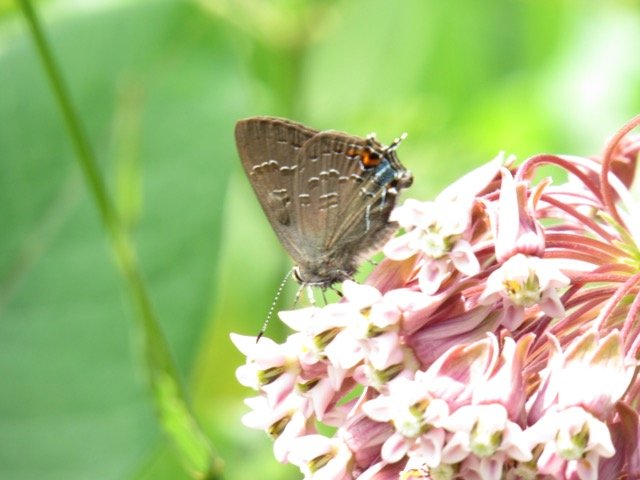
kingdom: Animalia
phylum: Arthropoda
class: Insecta
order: Lepidoptera
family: Lycaenidae
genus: Satyrium
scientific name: Satyrium calanus
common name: Banded Hairstreak
